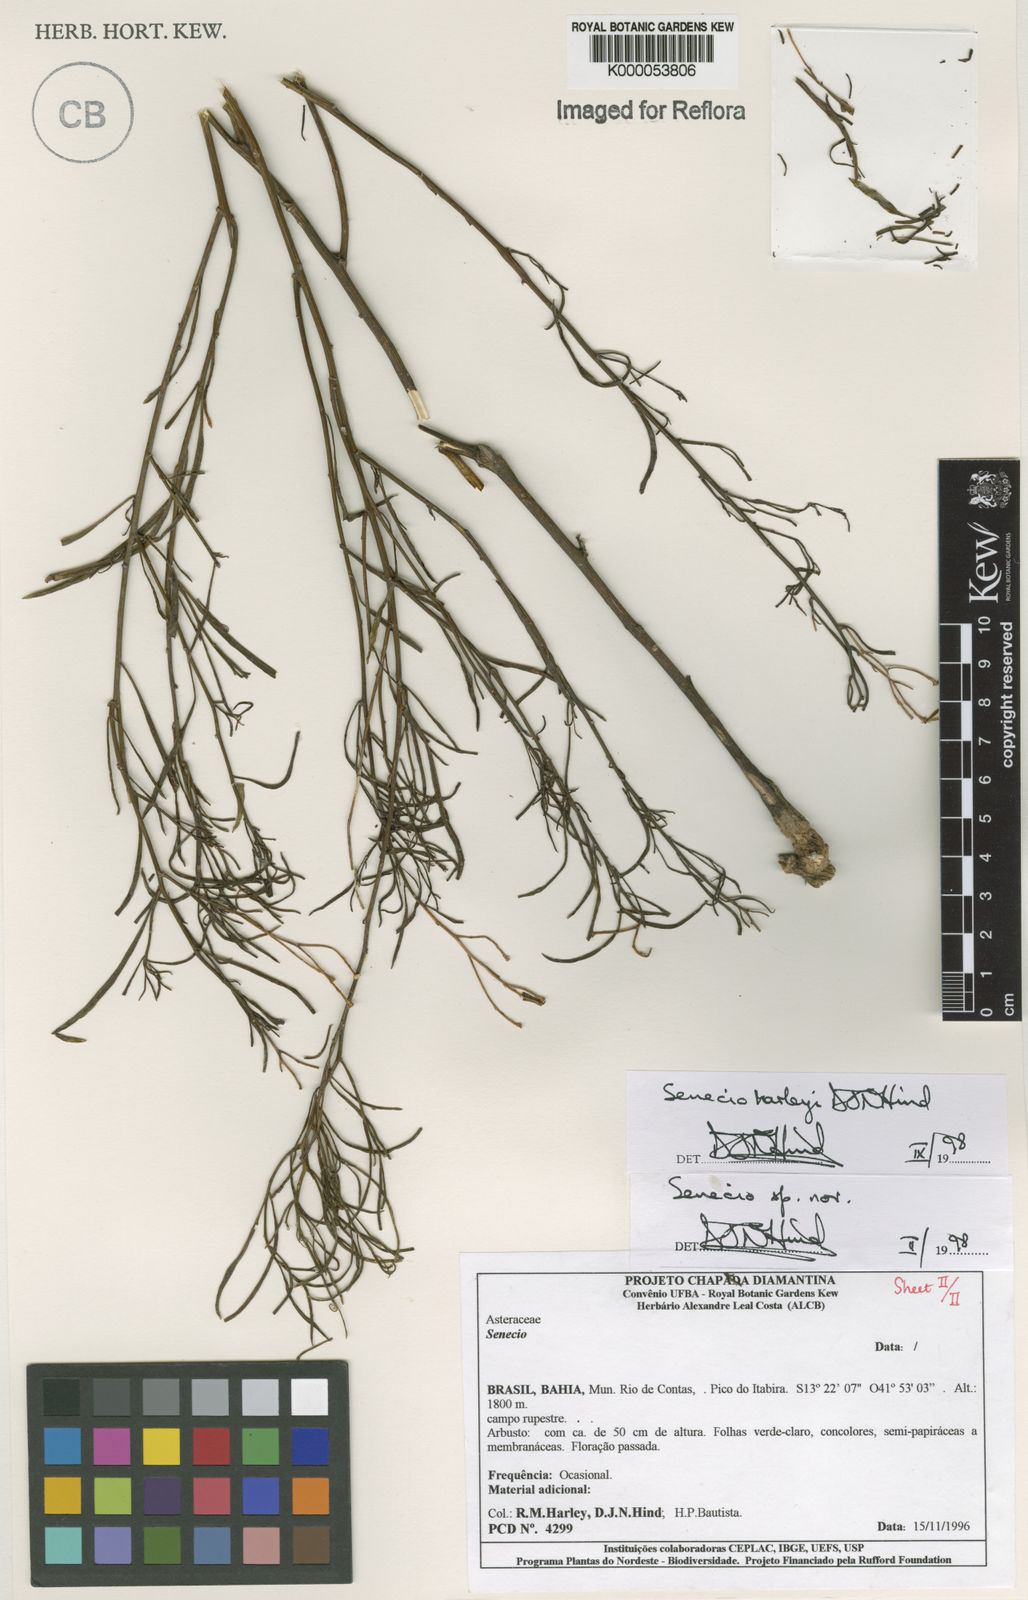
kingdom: Plantae
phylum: Tracheophyta
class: Magnoliopsida
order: Asterales
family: Asteraceae
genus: Senecio
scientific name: Senecio harleyi
